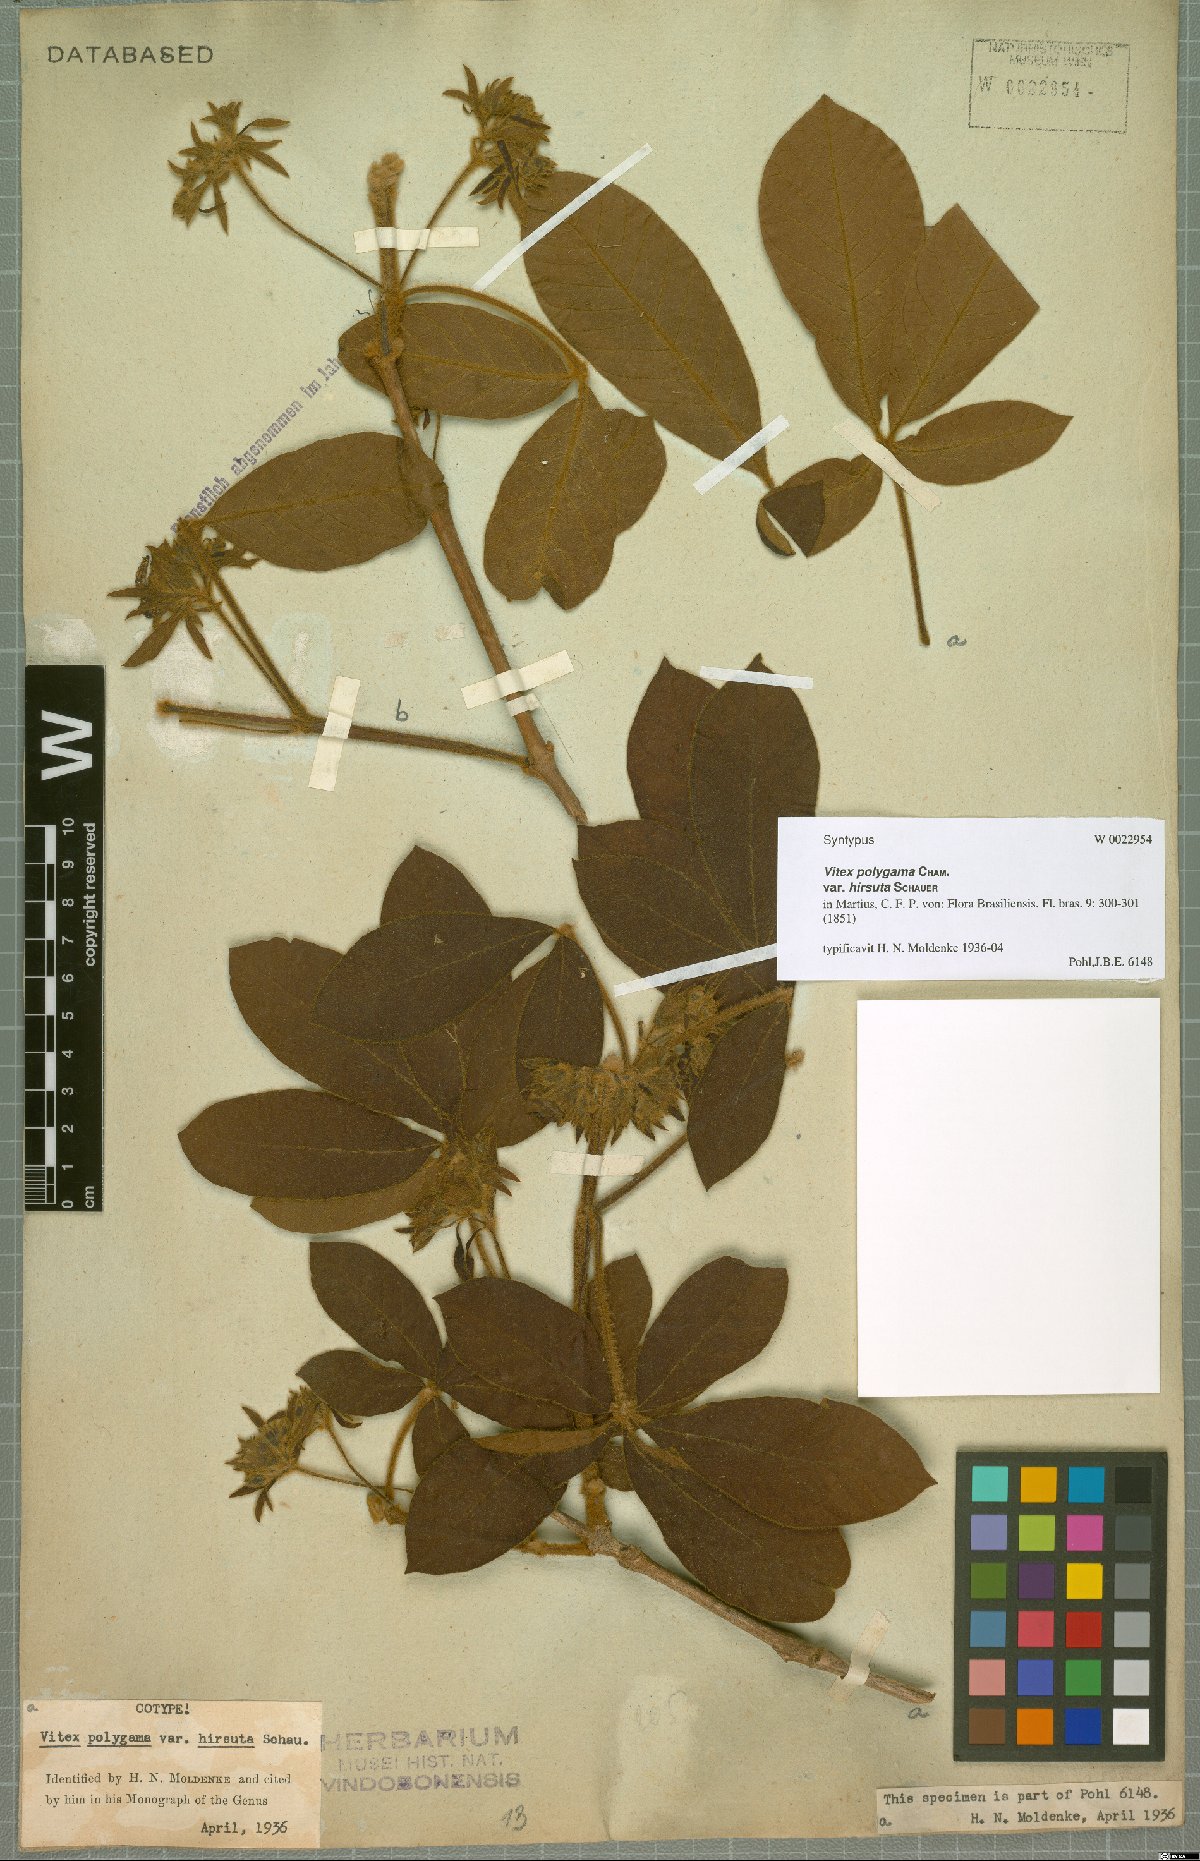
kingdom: Plantae
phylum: Tracheophyta
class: Magnoliopsida
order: Lamiales
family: Lamiaceae
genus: Vitex
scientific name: Vitex polygama
